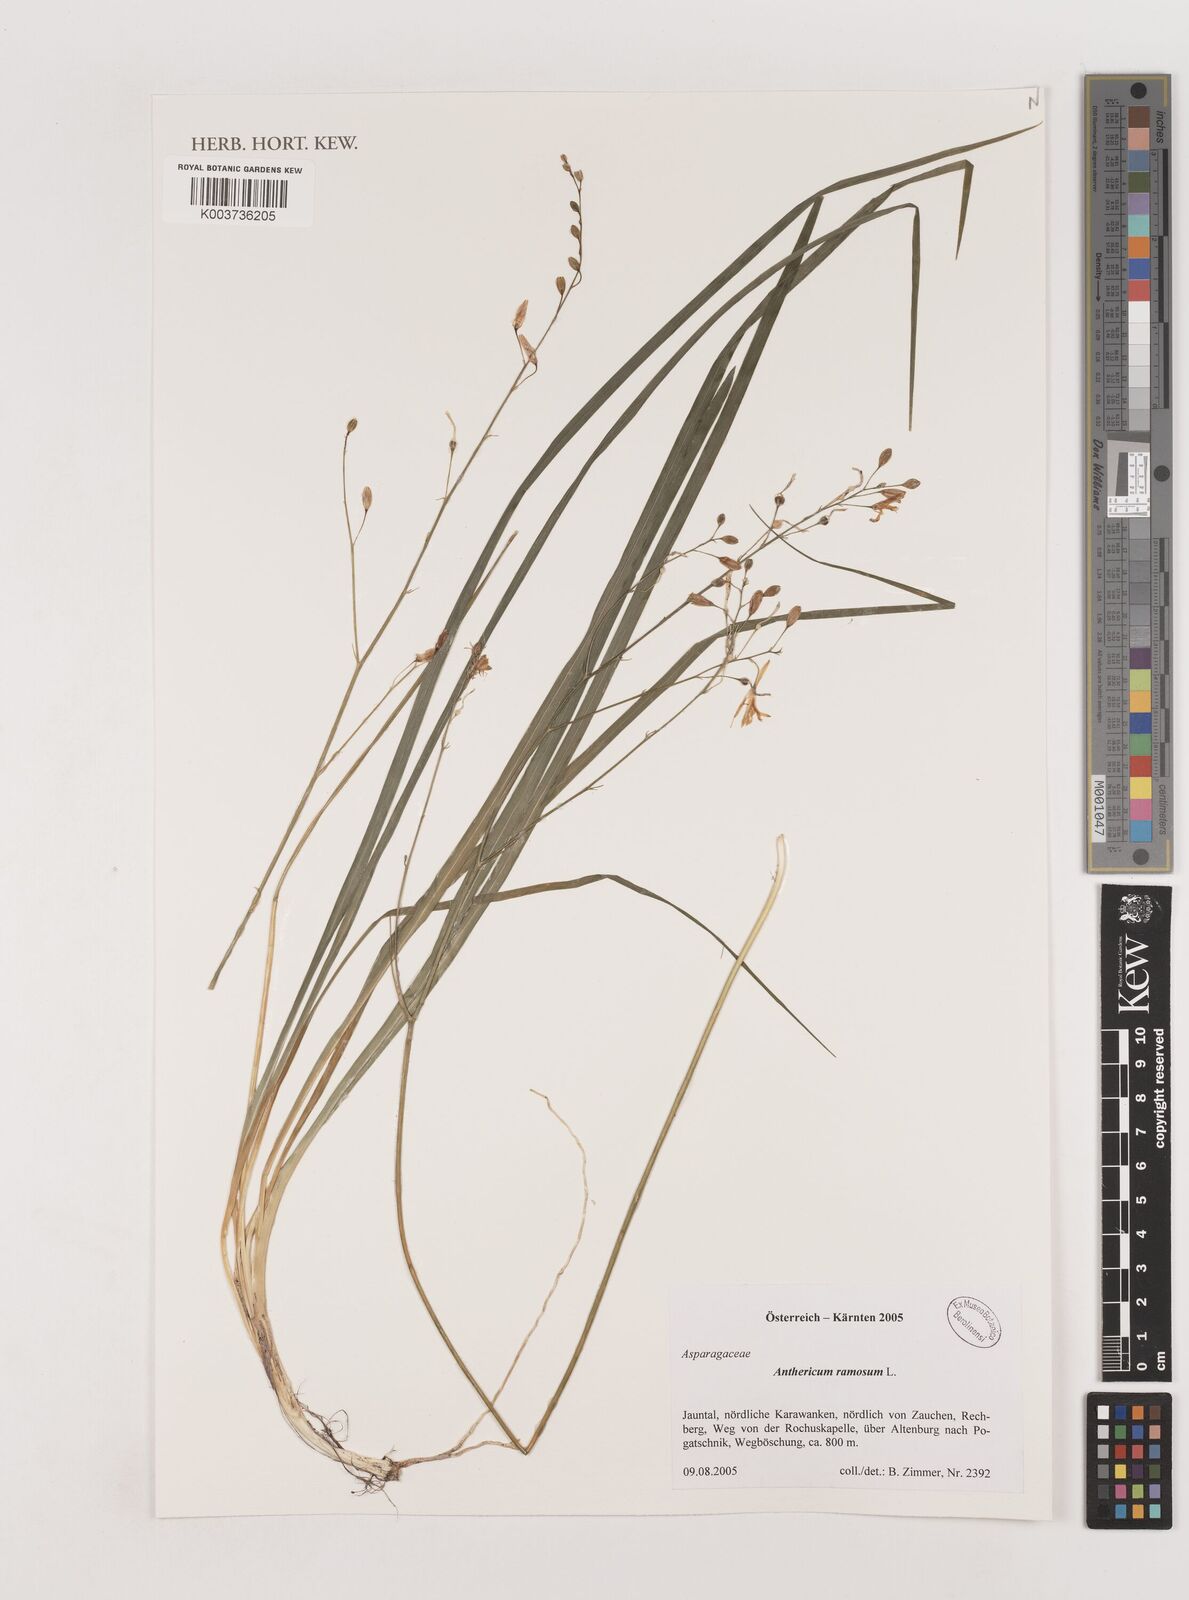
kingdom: Plantae
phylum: Tracheophyta
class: Liliopsida
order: Asparagales
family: Asparagaceae
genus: Anthericum
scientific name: Anthericum
